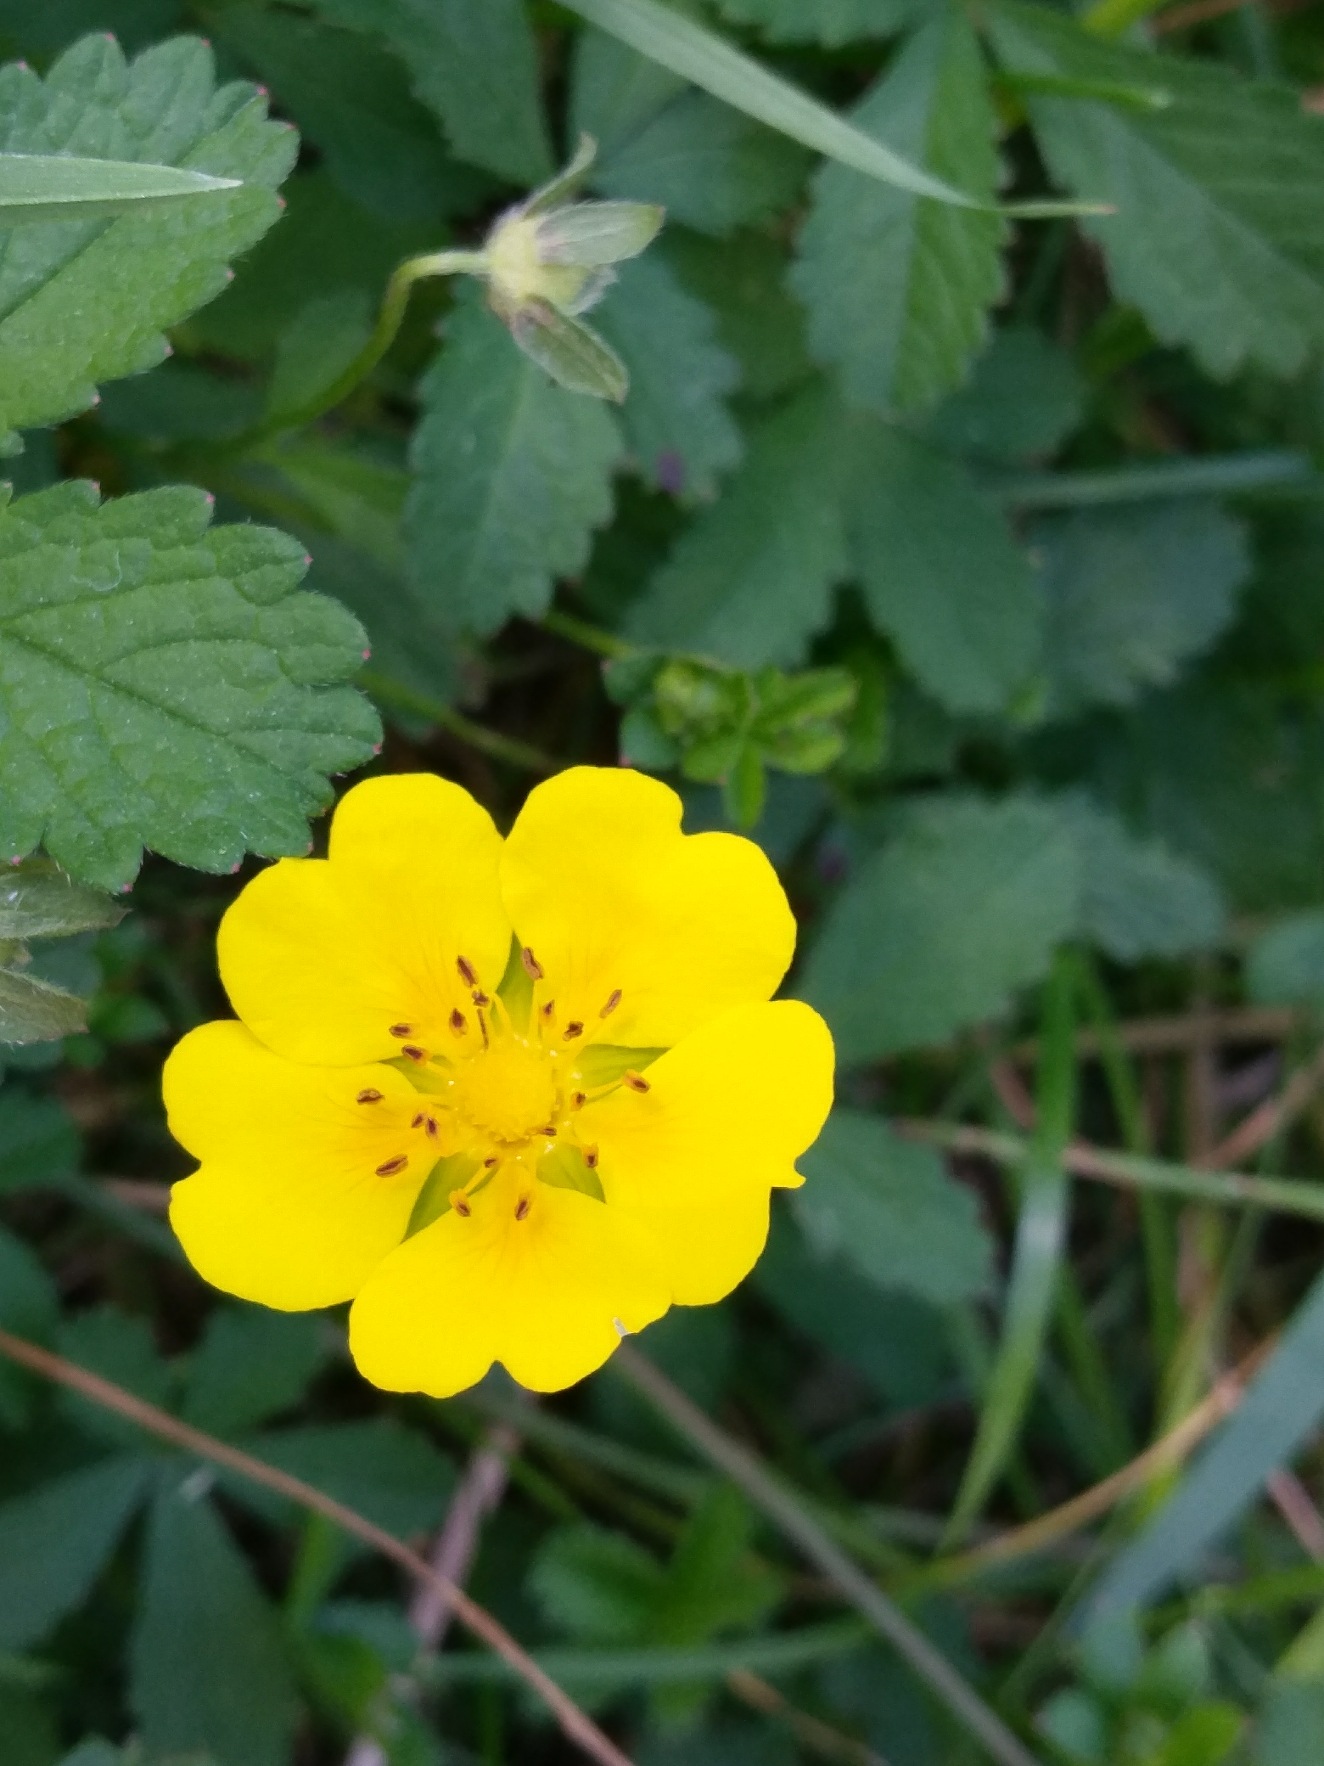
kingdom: Plantae
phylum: Tracheophyta
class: Magnoliopsida
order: Rosales
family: Rosaceae
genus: Potentilla
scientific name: Potentilla reptans
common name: Krybende potentil
